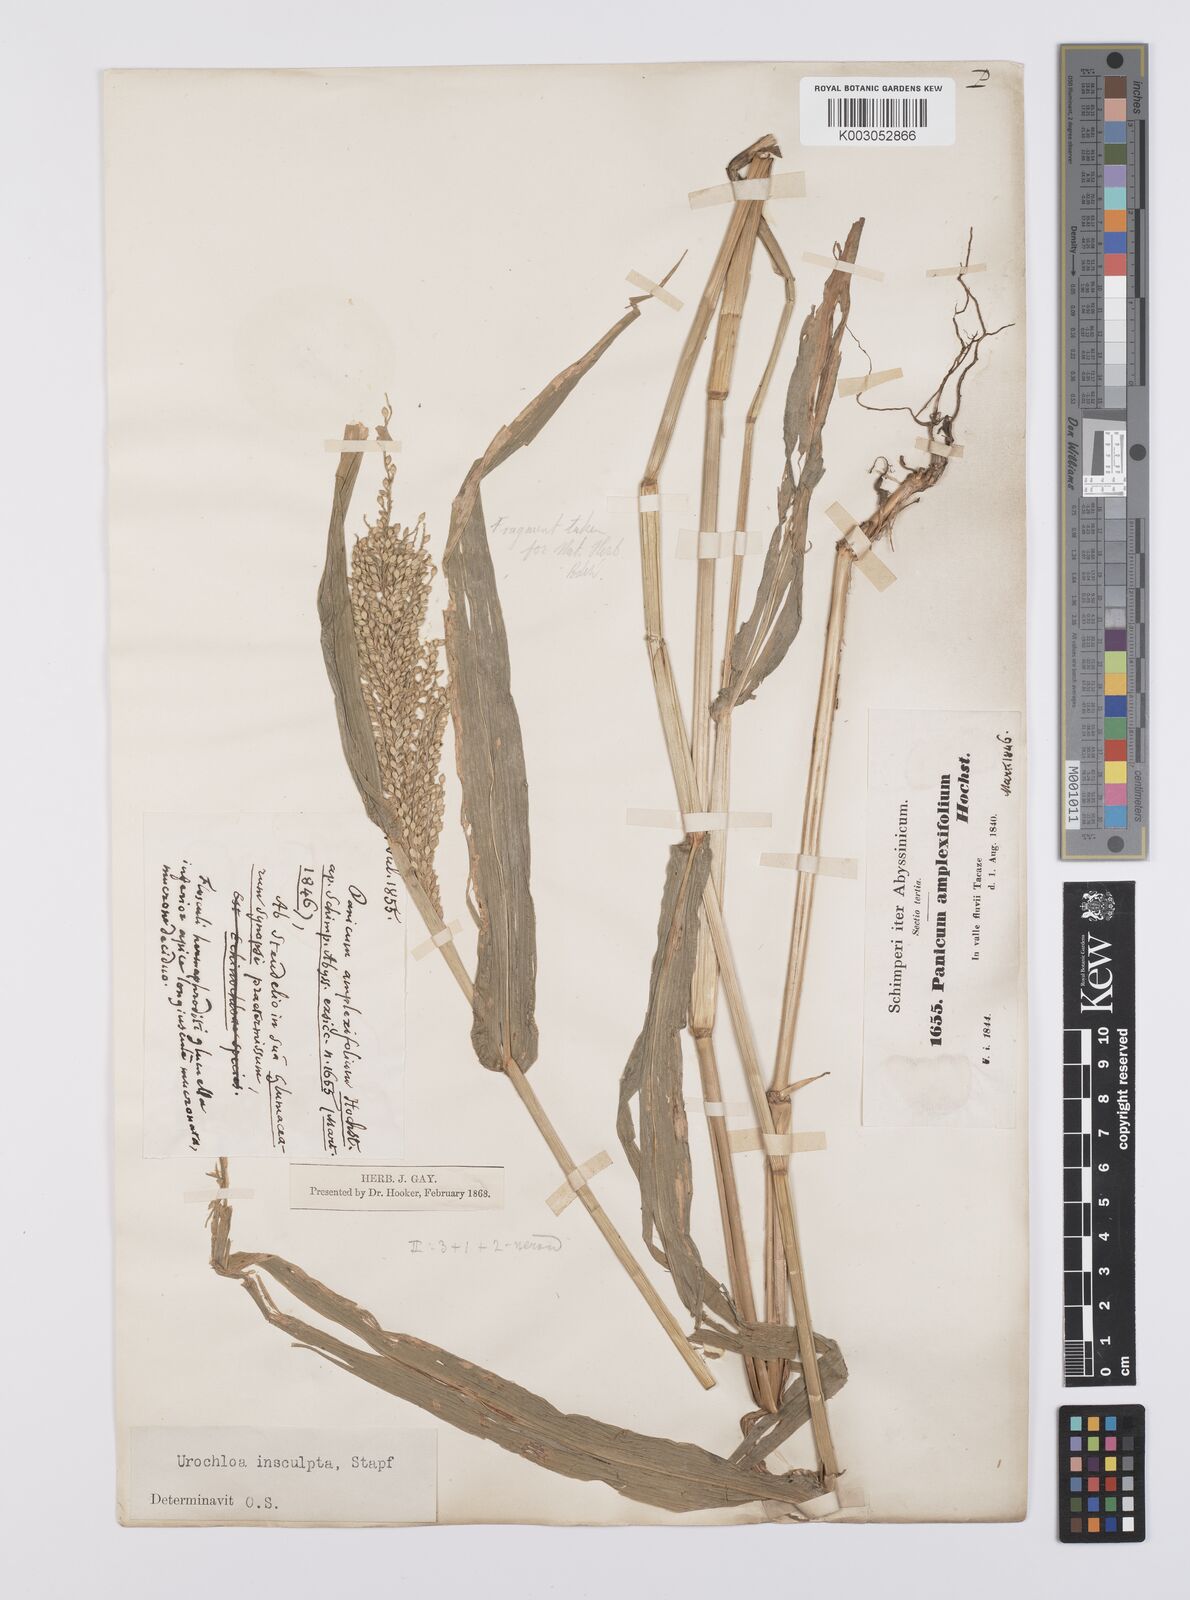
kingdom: Plantae
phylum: Tracheophyta
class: Liliopsida
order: Poales
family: Poaceae
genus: Urochloa
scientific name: Urochloa lata
